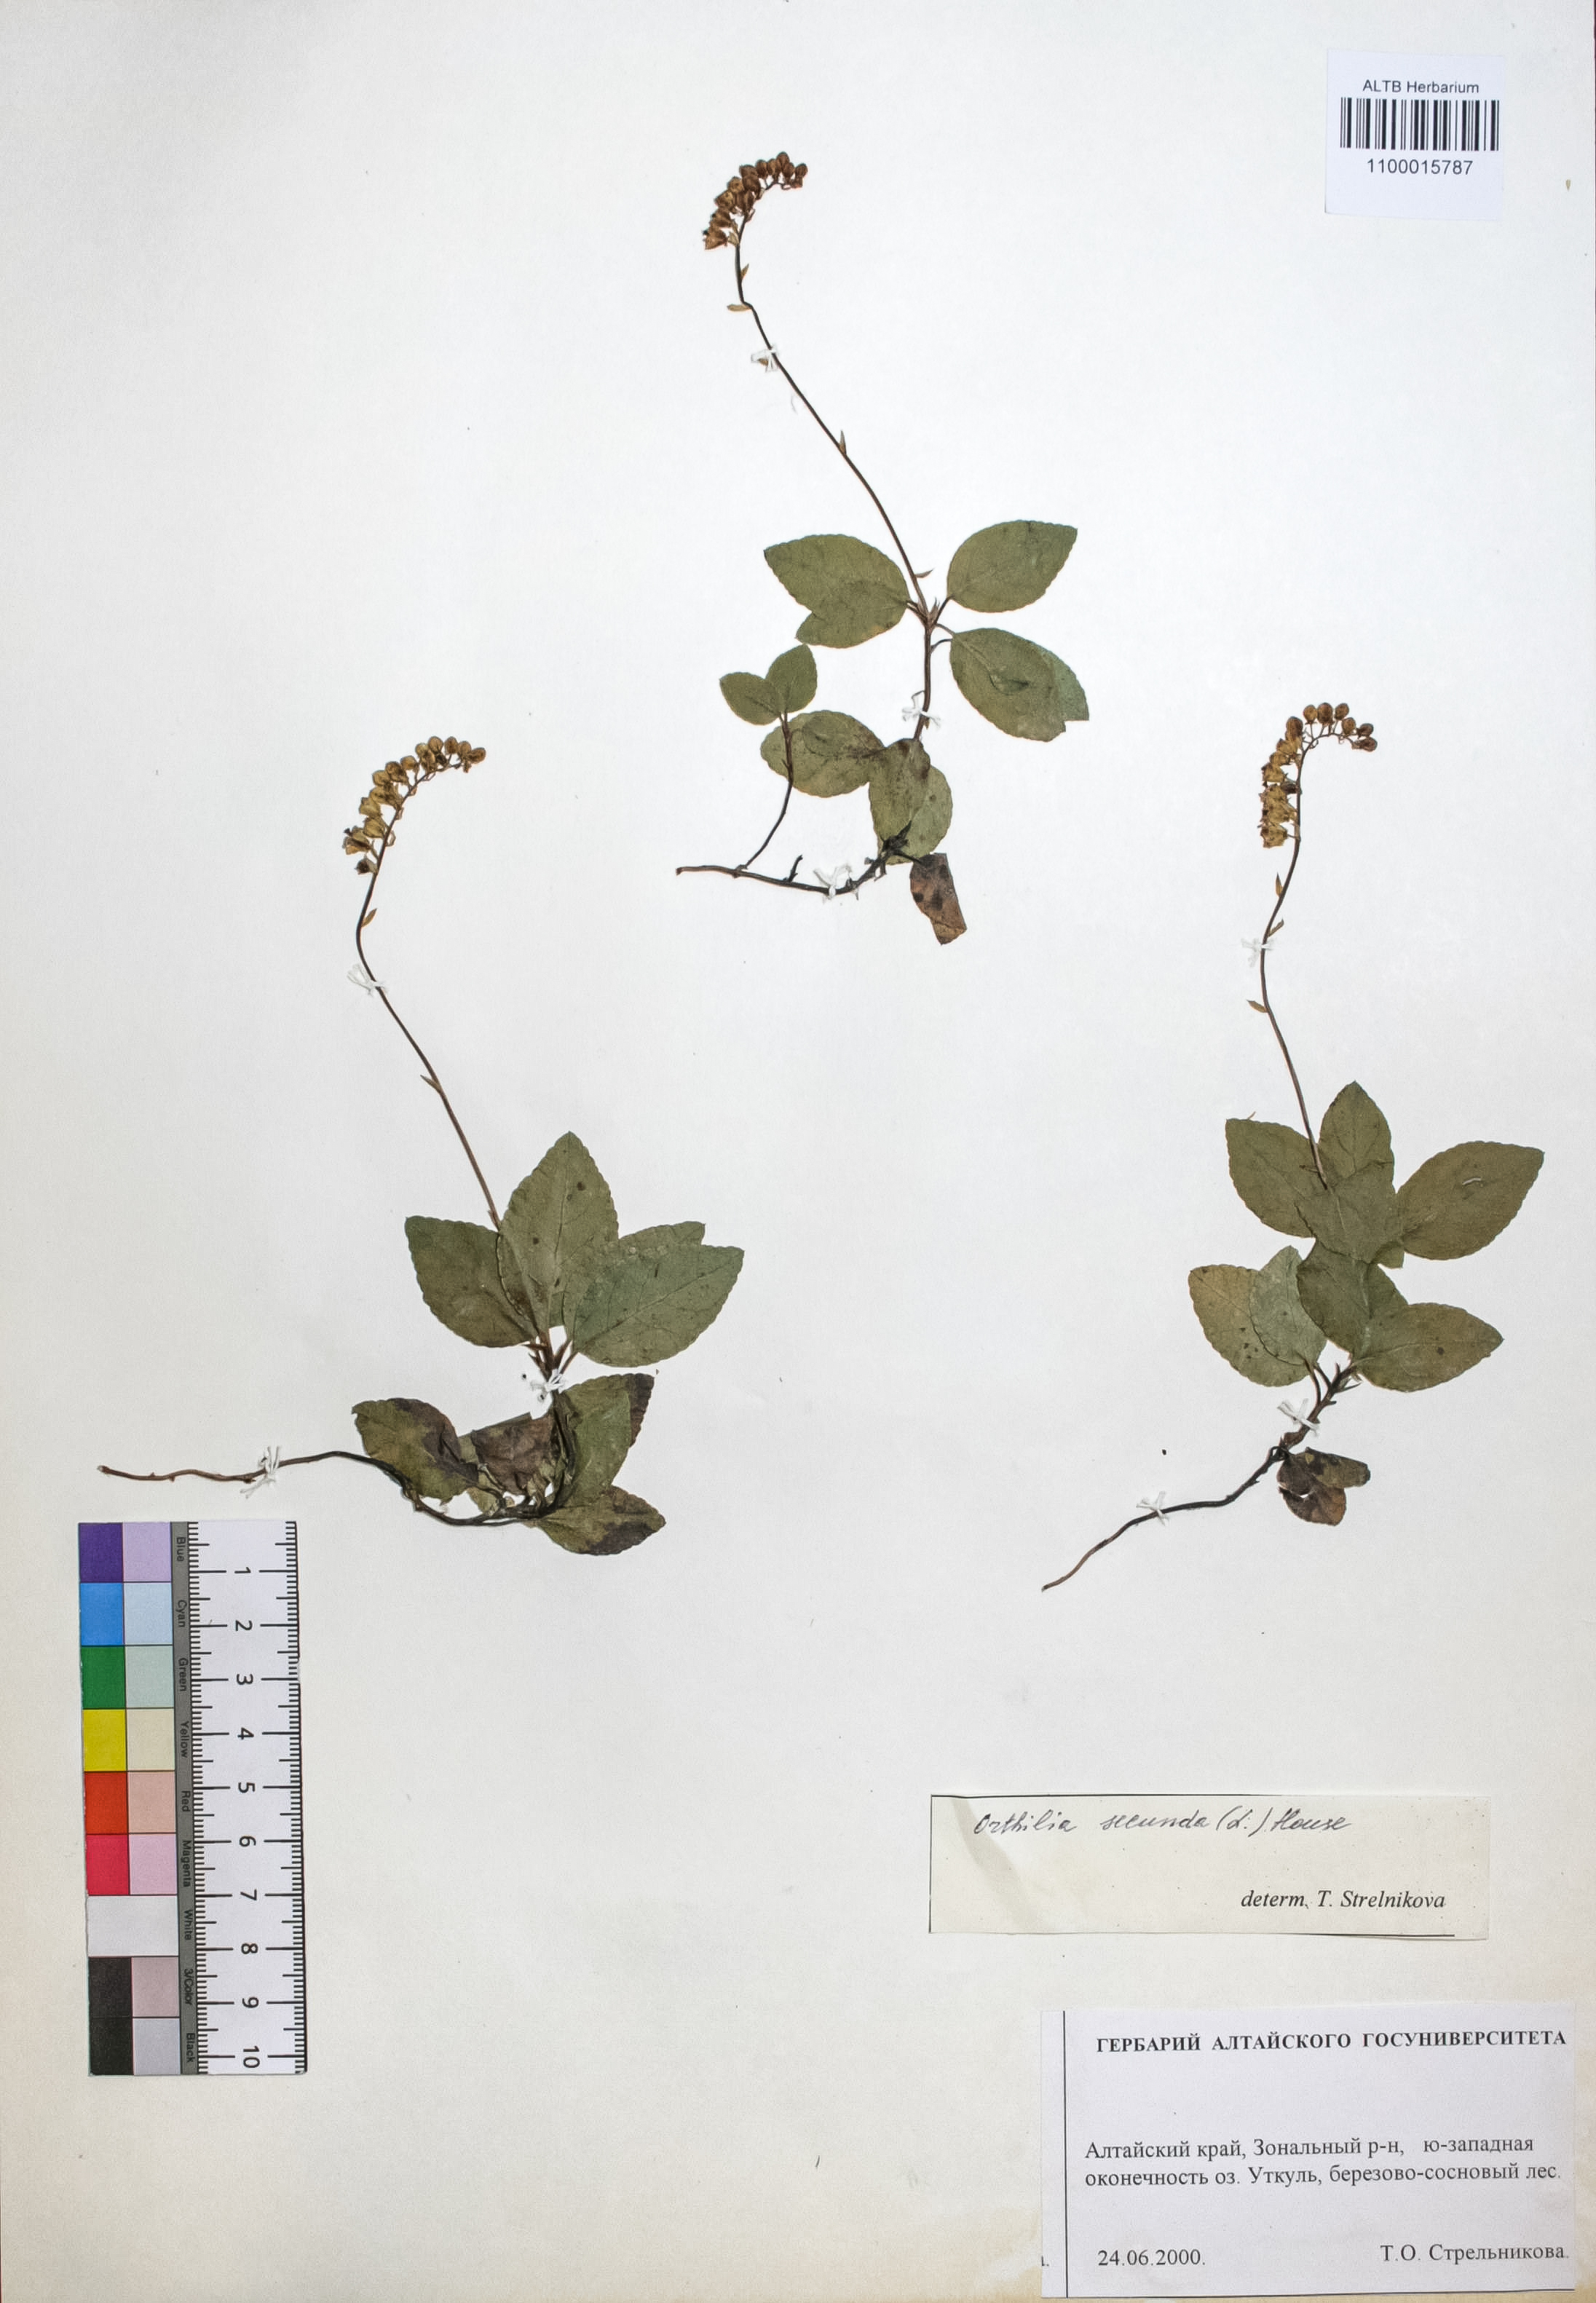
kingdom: Plantae
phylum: Tracheophyta
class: Magnoliopsida
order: Ericales
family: Ericaceae
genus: Orthilia
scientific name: Orthilia secunda
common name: One-sided orthilia
